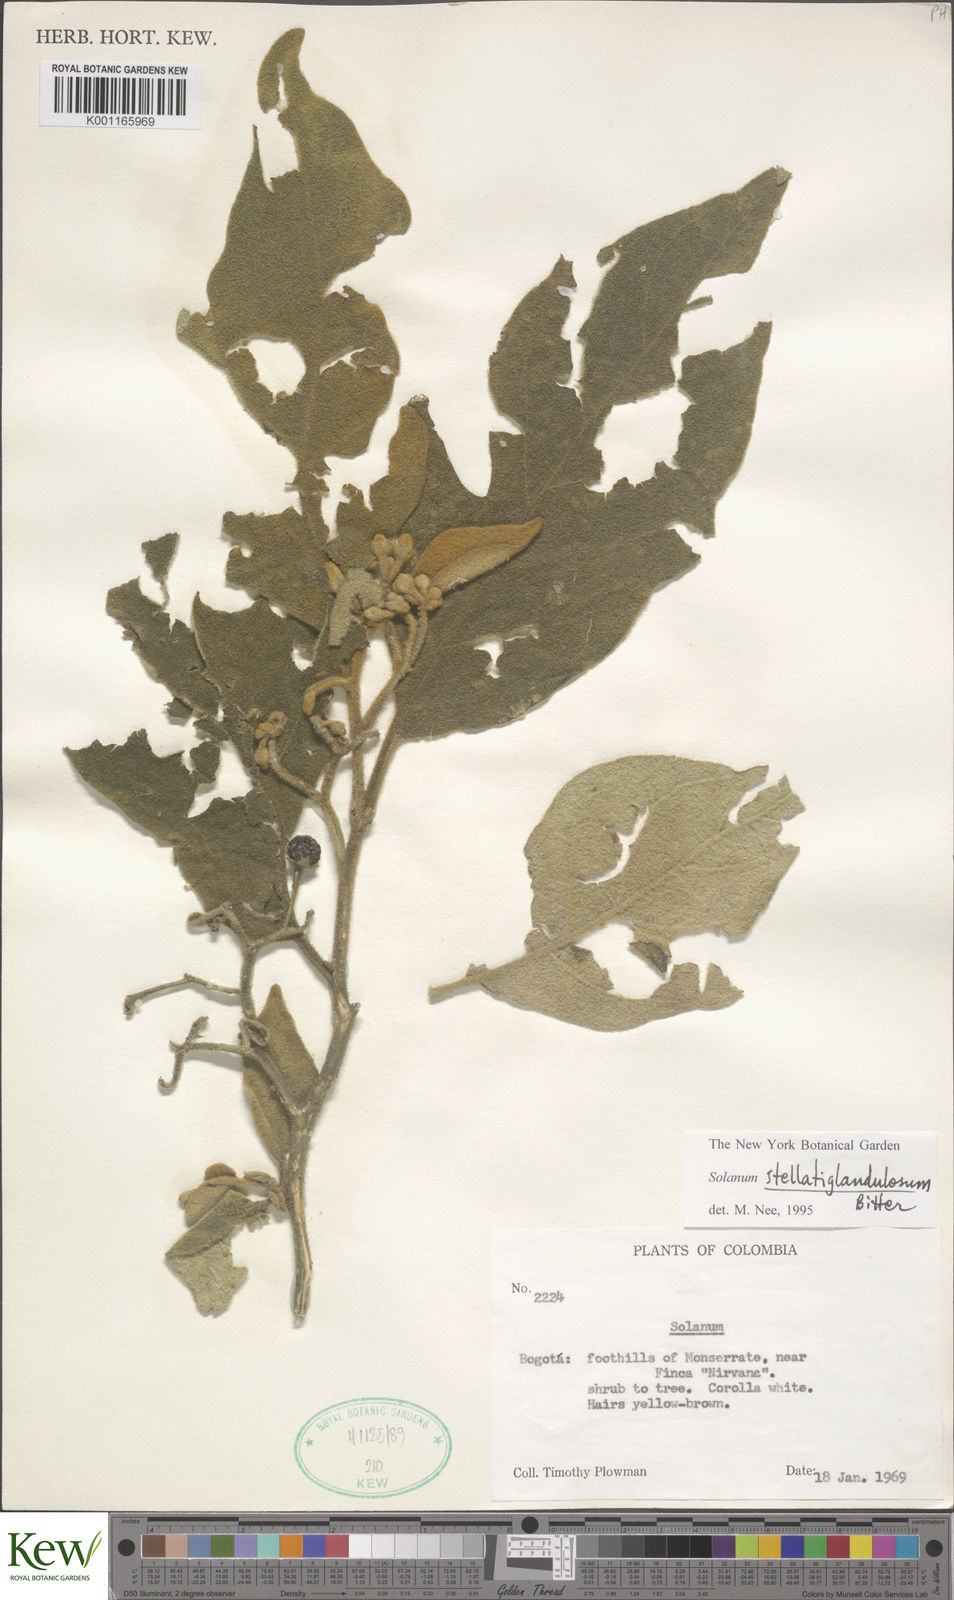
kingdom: Plantae
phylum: Tracheophyta
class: Magnoliopsida
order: Solanales
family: Solanaceae
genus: Solanum
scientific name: Solanum stellatiglandulosum
